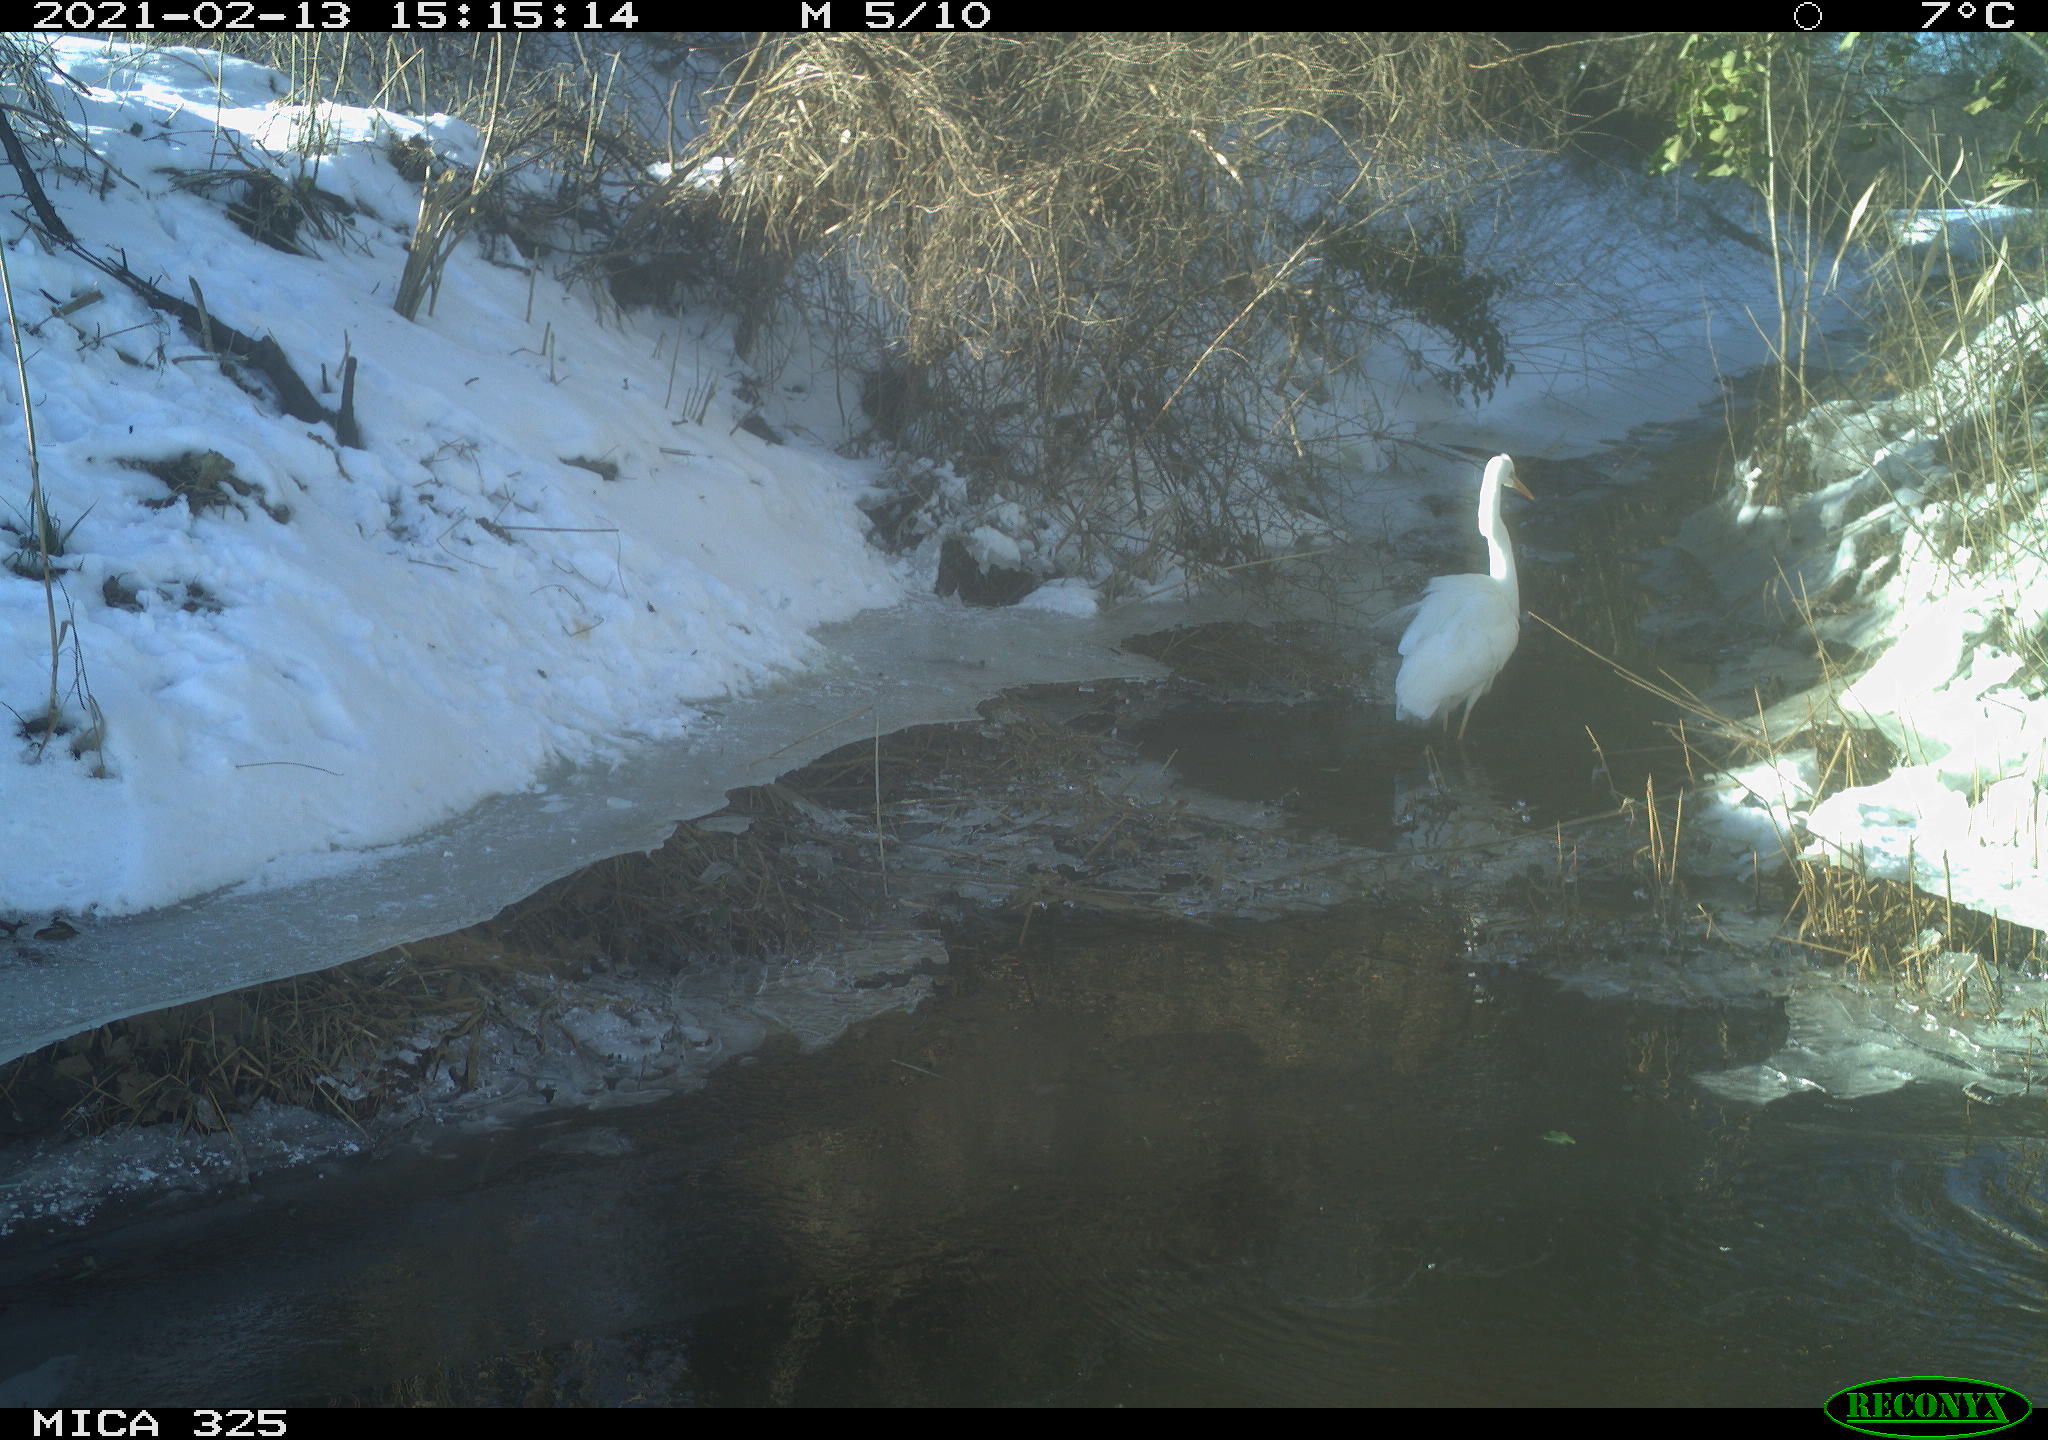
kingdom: Animalia
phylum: Chordata
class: Aves
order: Pelecaniformes
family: Ardeidae
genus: Ardea
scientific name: Ardea alba
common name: Great egret
